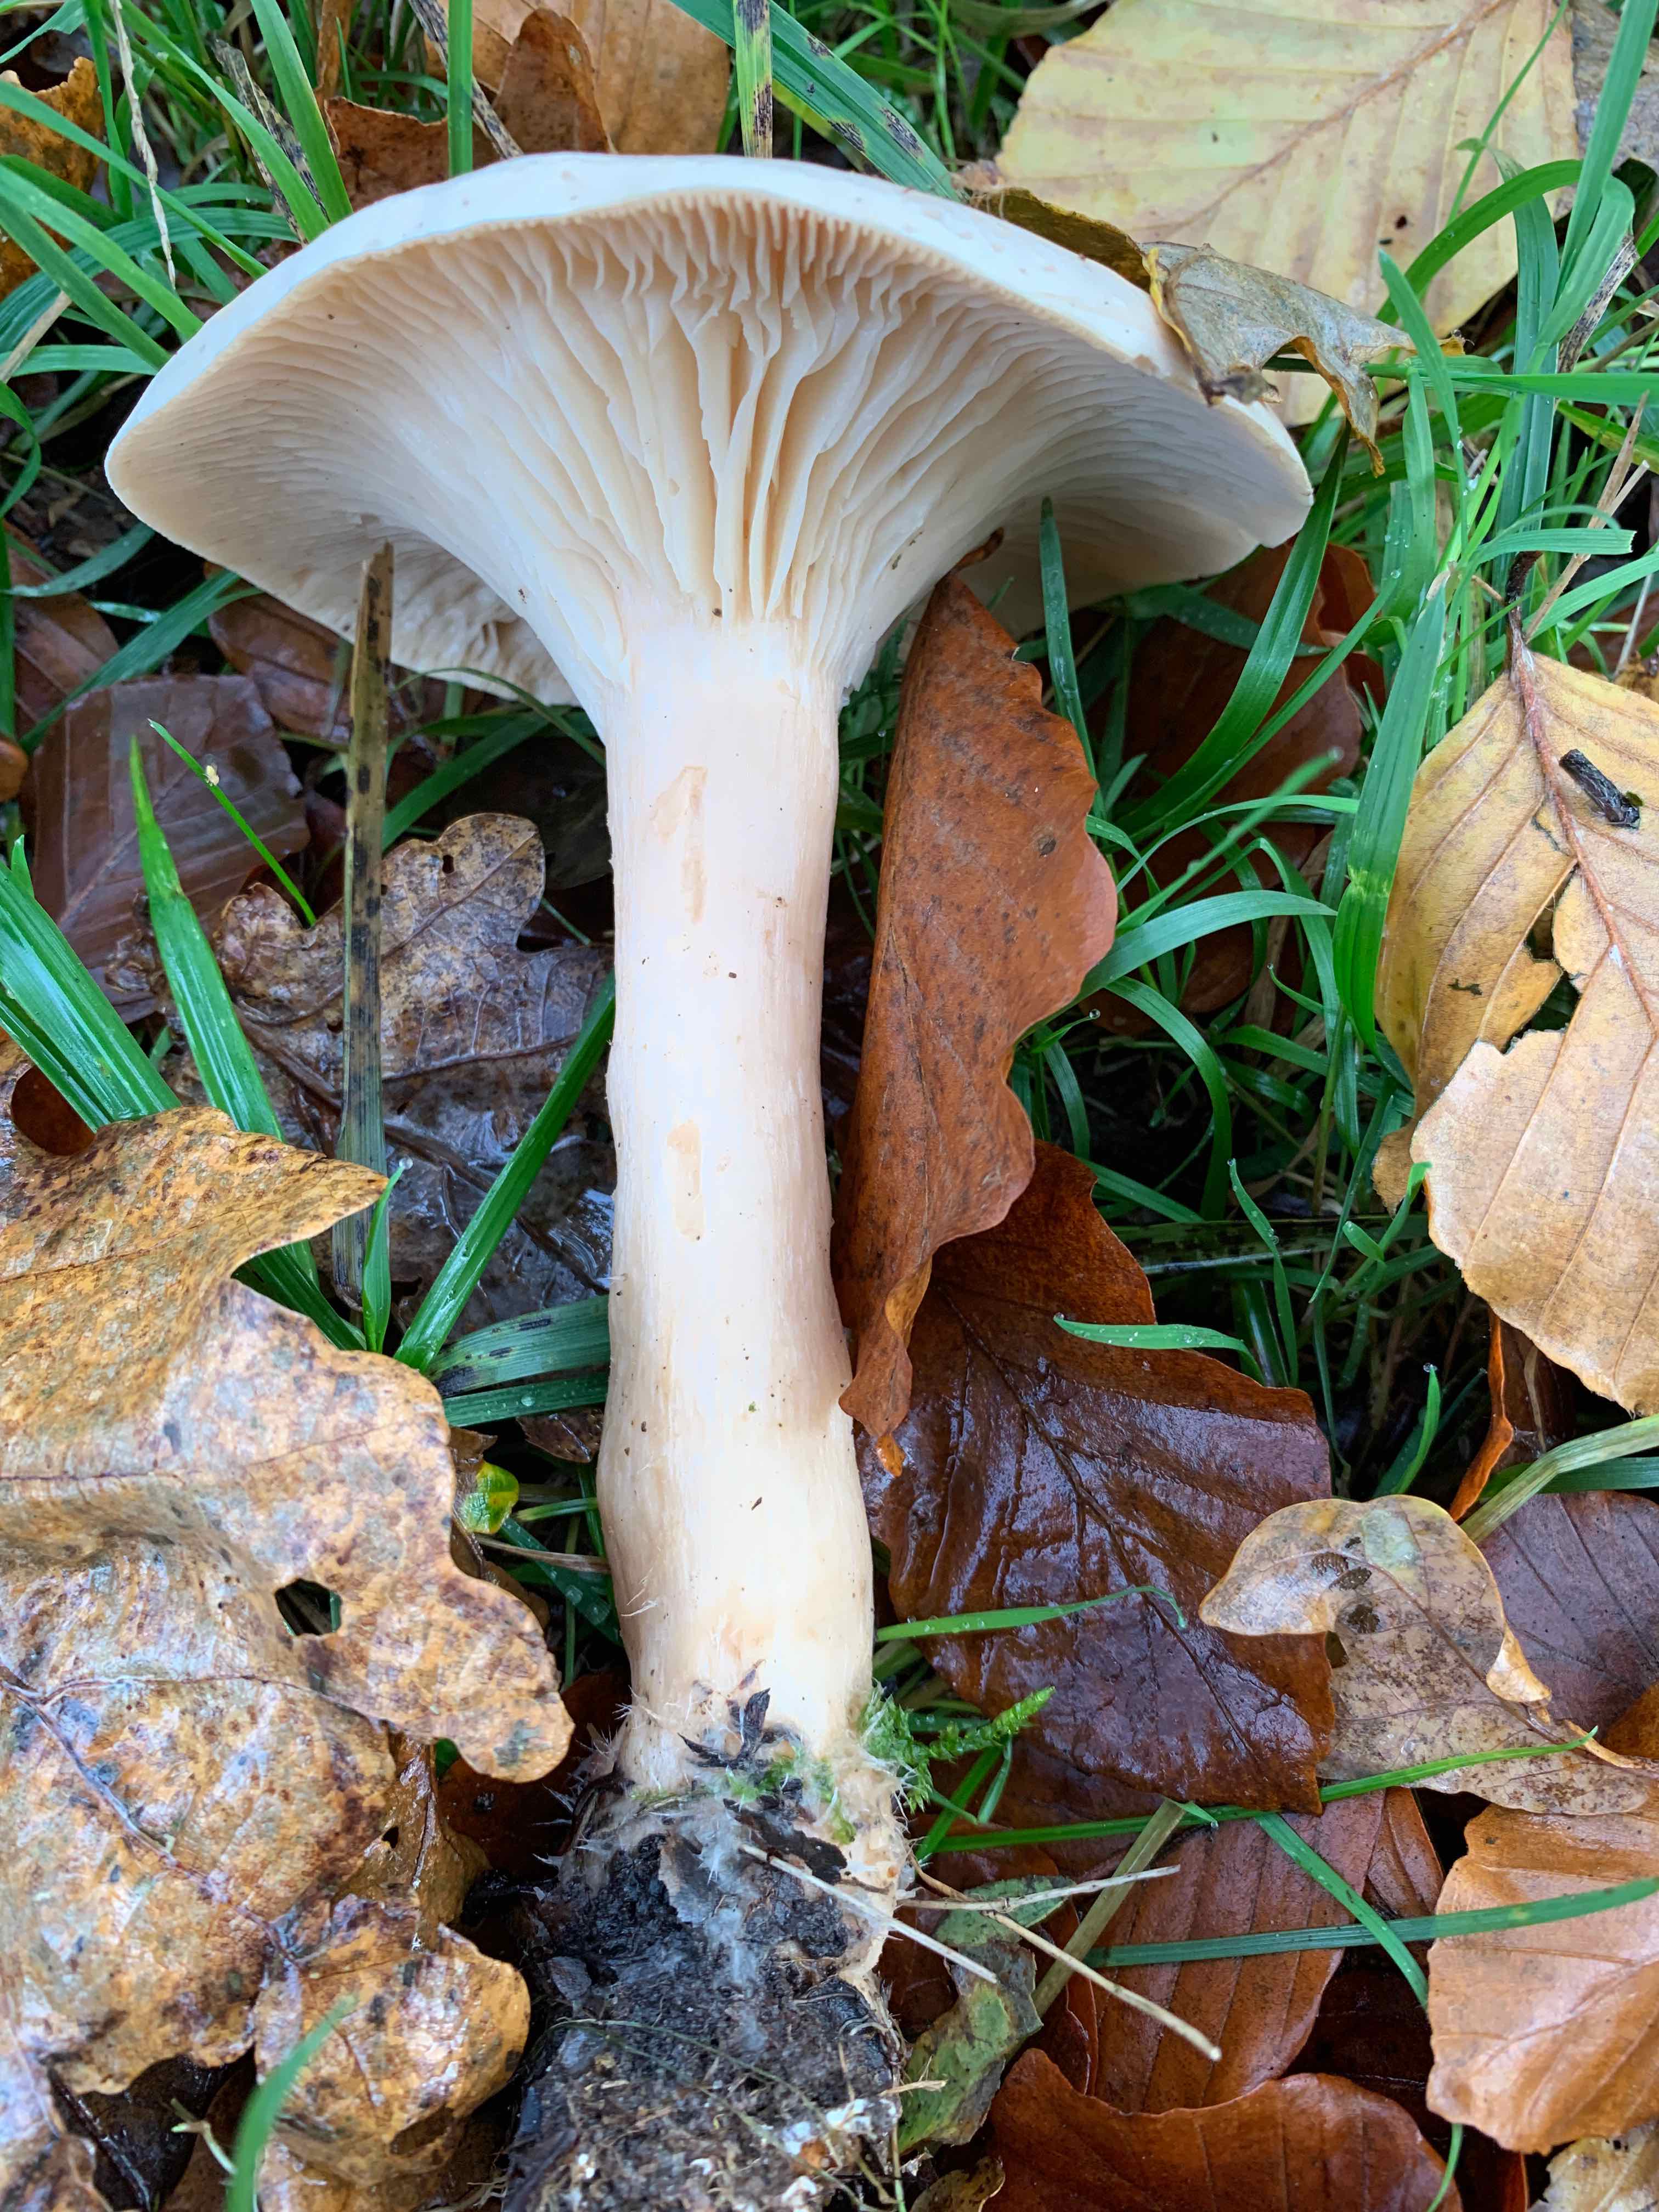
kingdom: Fungi
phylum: Basidiomycota
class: Agaricomycetes
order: Agaricales
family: Tricholomataceae
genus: Infundibulicybe
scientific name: Infundibulicybe geotropa
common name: stor tragthat
